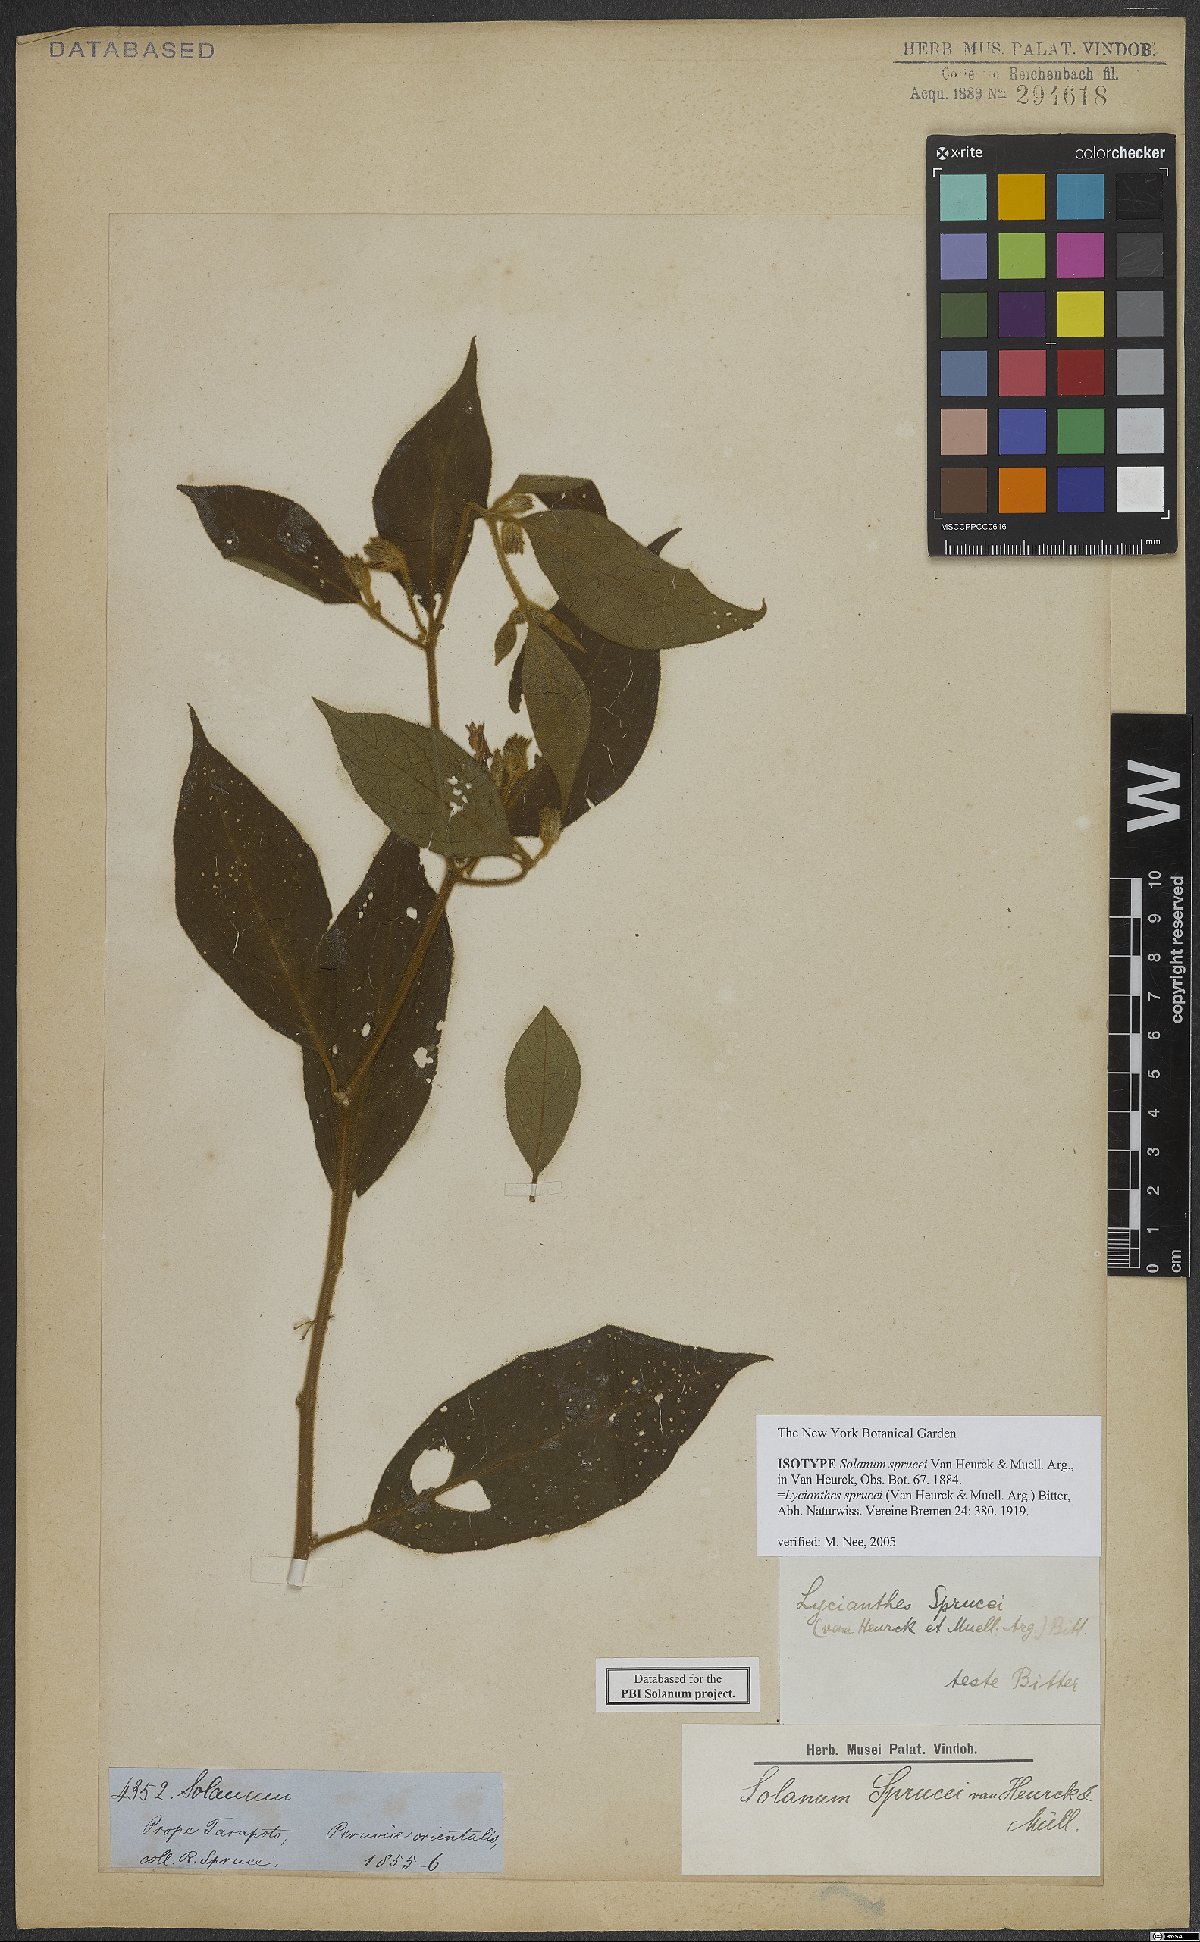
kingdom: Plantae
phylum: Tracheophyta
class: Magnoliopsida
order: Solanales
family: Solanaceae
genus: Lycianthes
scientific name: Lycianthes sprucei
